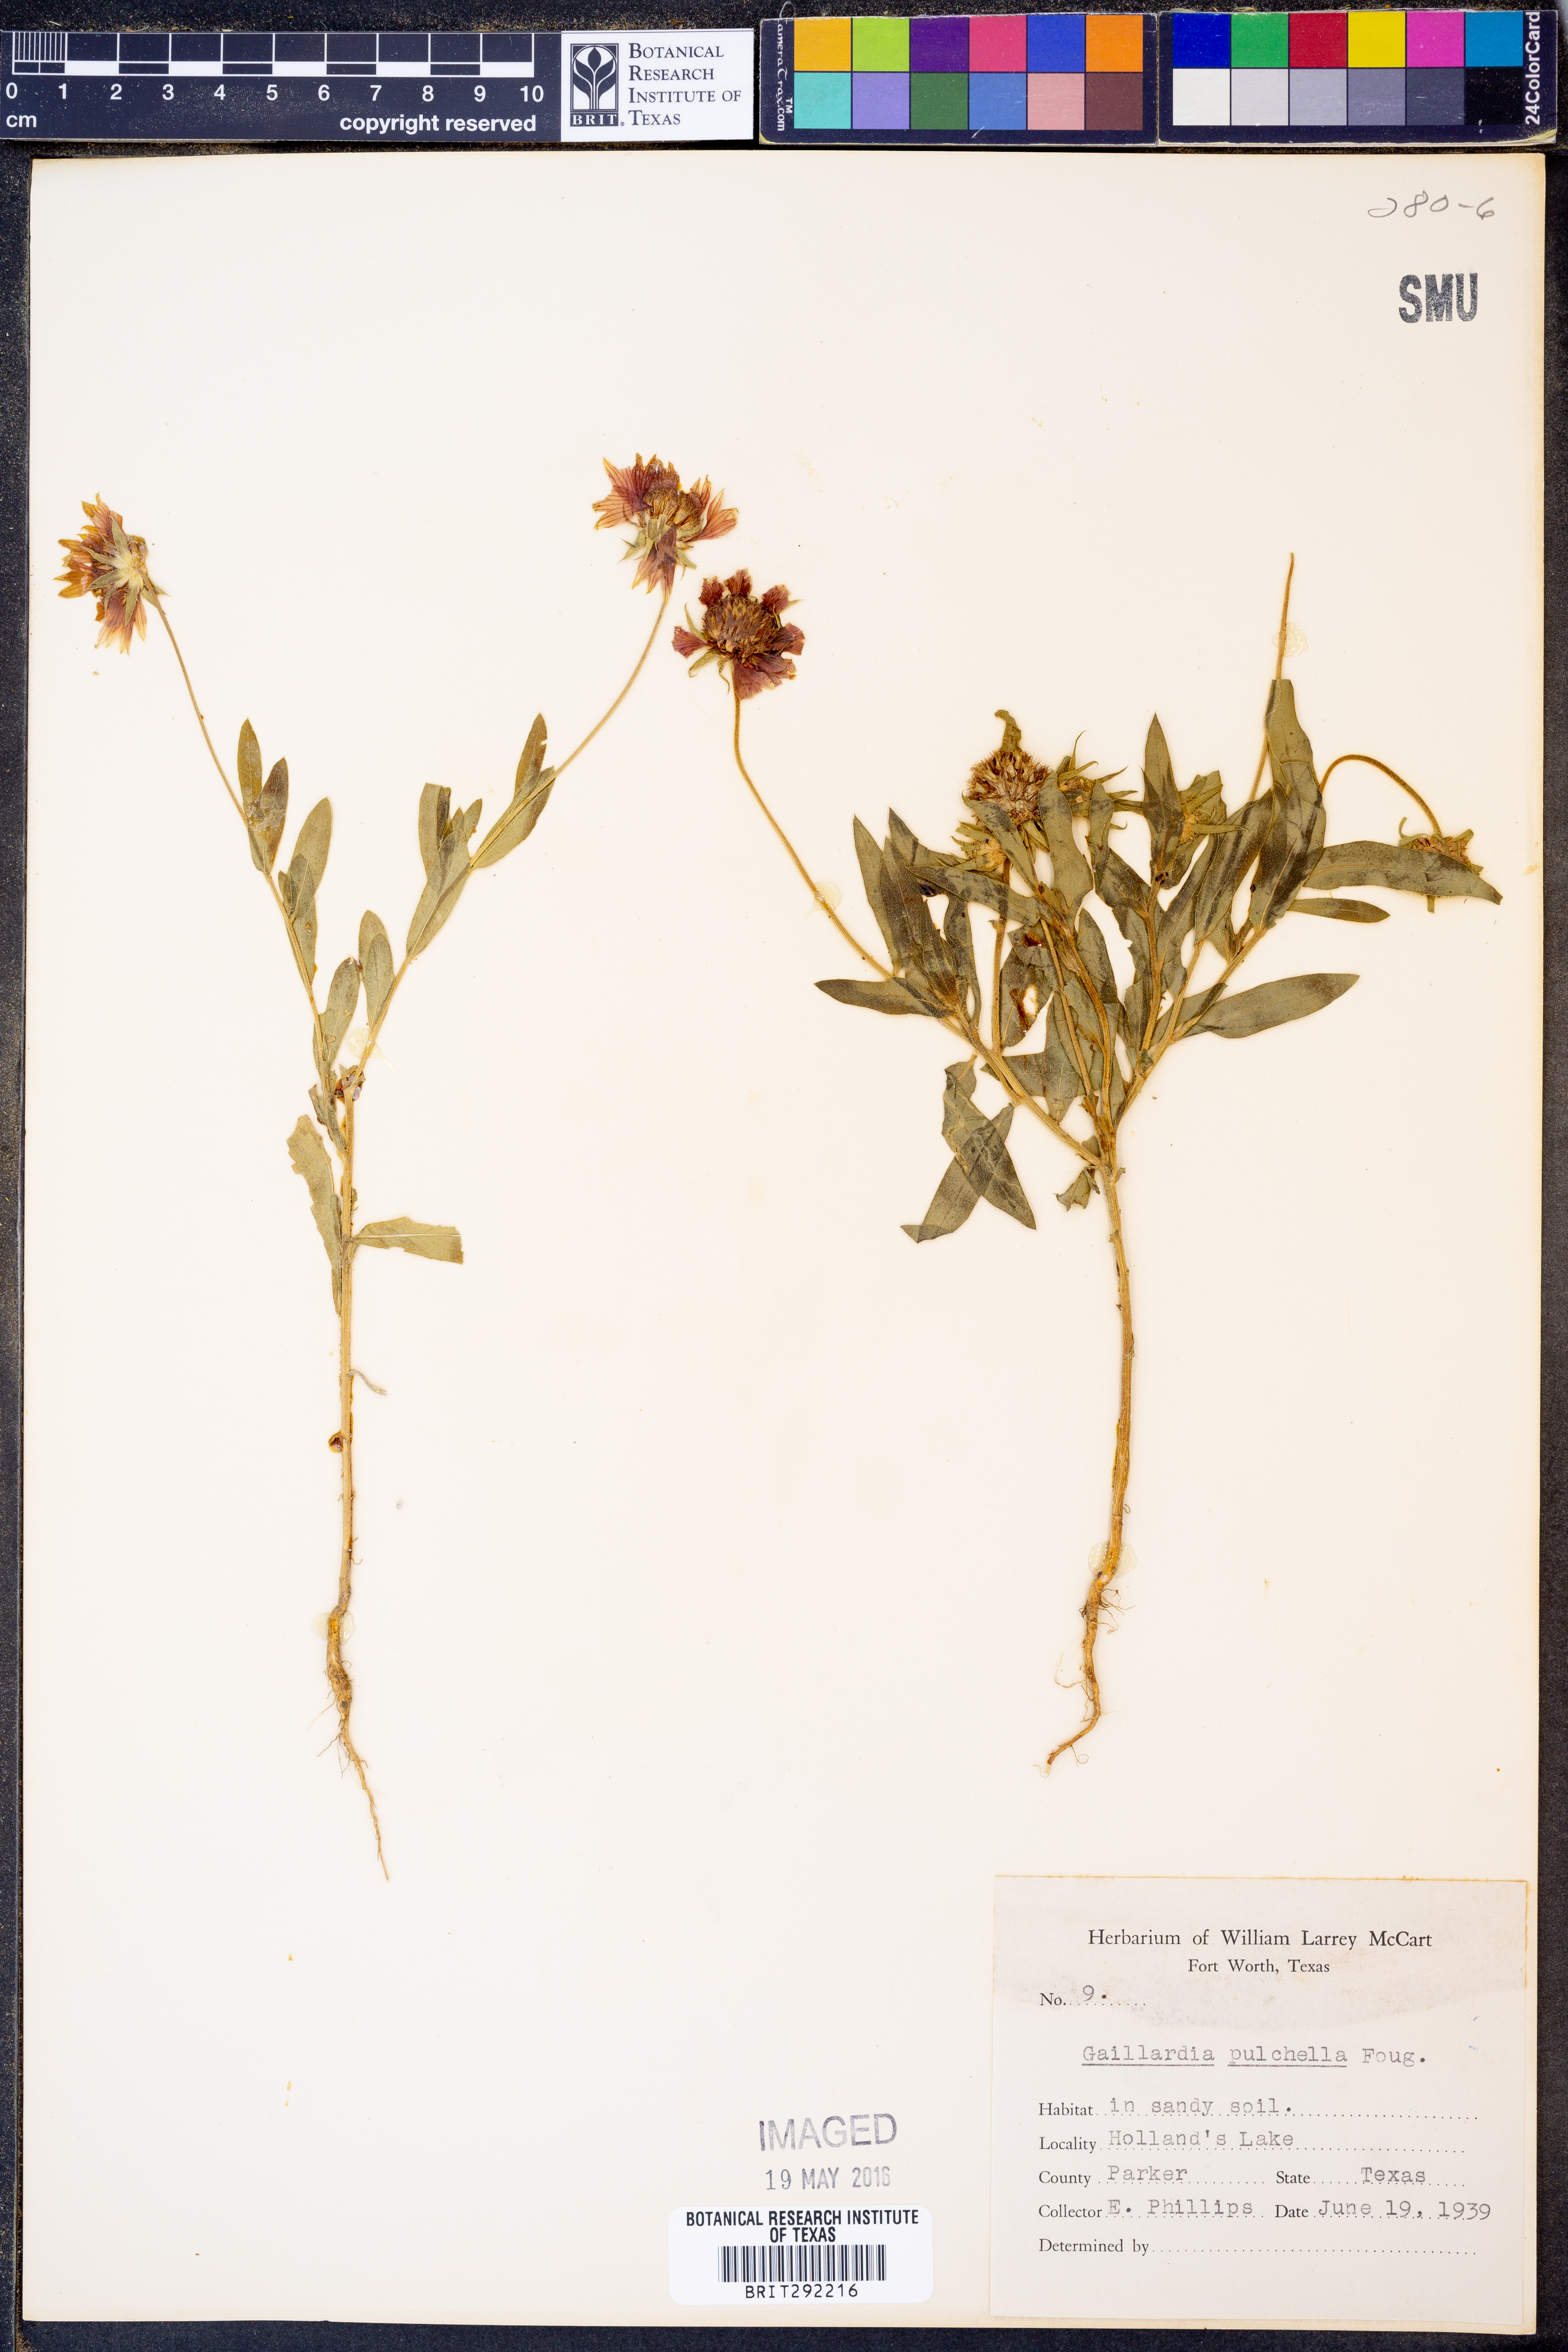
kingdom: Plantae
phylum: Tracheophyta
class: Magnoliopsida
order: Asterales
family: Asteraceae
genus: Gaillardia
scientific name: Gaillardia pulchella
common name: Firewheel
